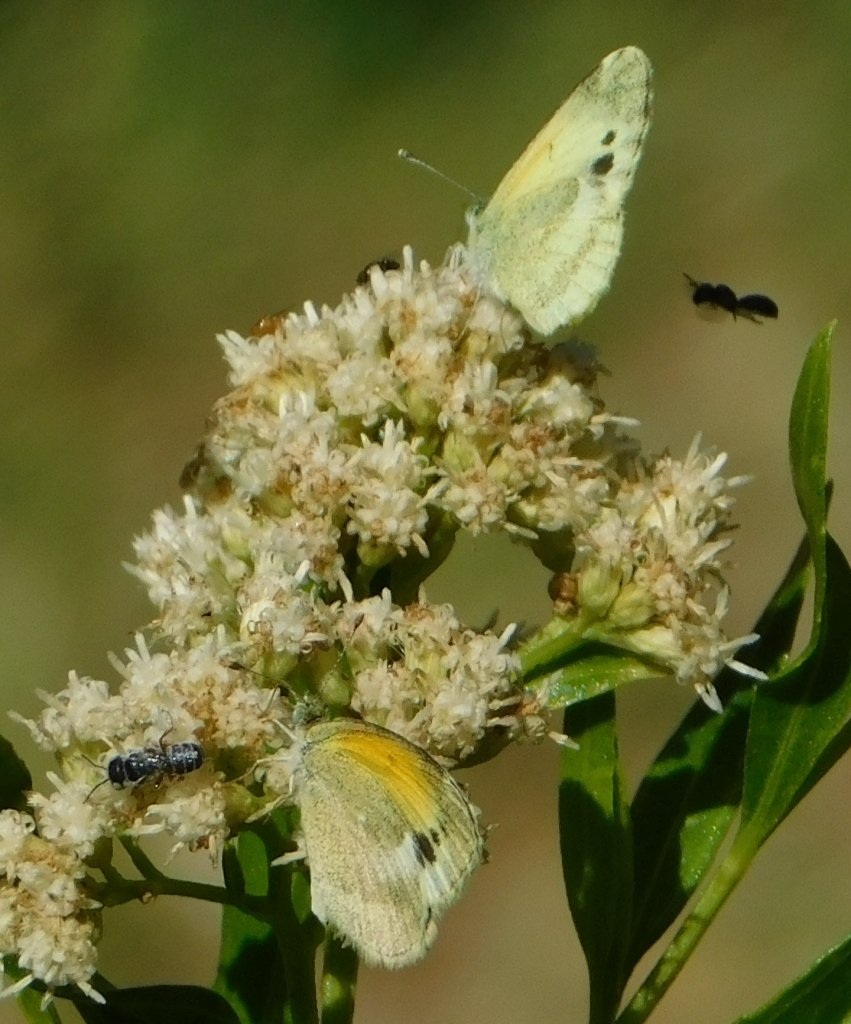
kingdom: Animalia
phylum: Arthropoda
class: Insecta
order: Lepidoptera
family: Pieridae
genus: Nathalis
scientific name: Nathalis iole
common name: Dainty Sulphur
